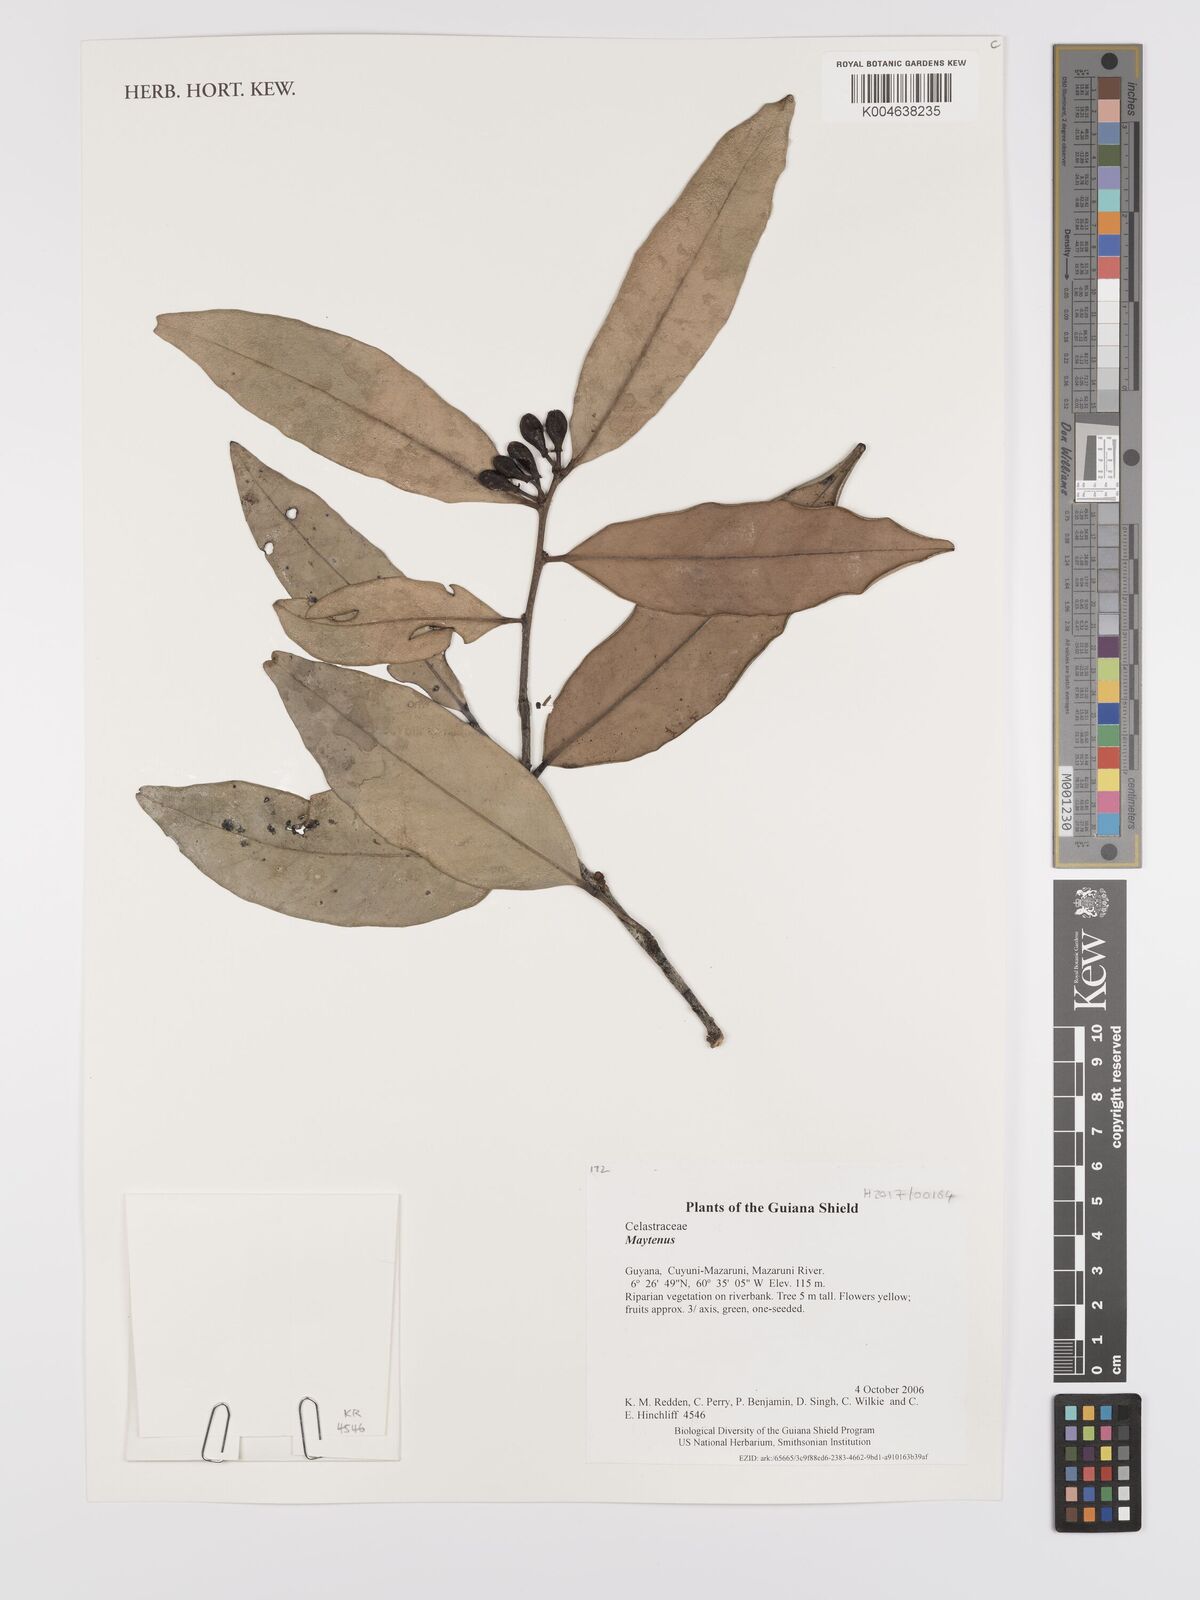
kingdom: Plantae
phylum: Tracheophyta
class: Magnoliopsida
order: Celastrales
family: Celastraceae
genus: Maytenus
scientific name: Maytenus
